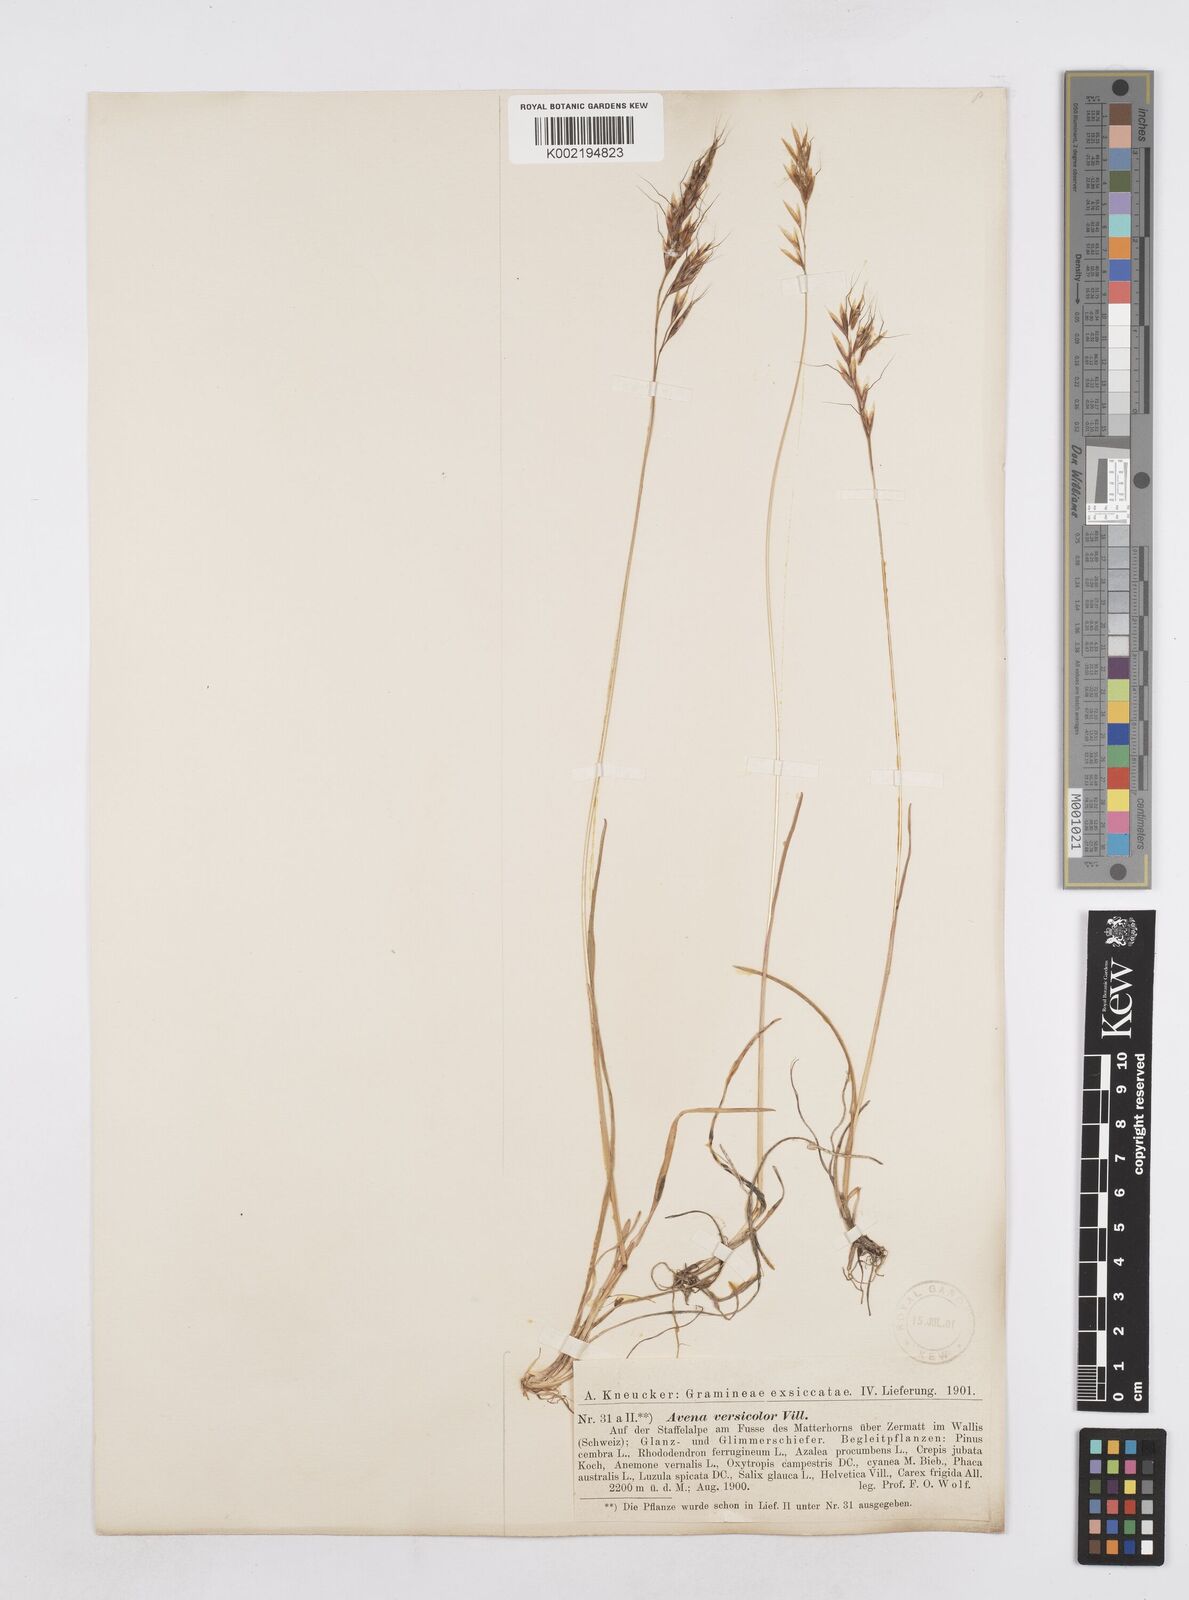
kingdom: Plantae
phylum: Tracheophyta
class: Liliopsida
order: Poales
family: Poaceae
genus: Helictotrichon
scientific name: Helictotrichon
